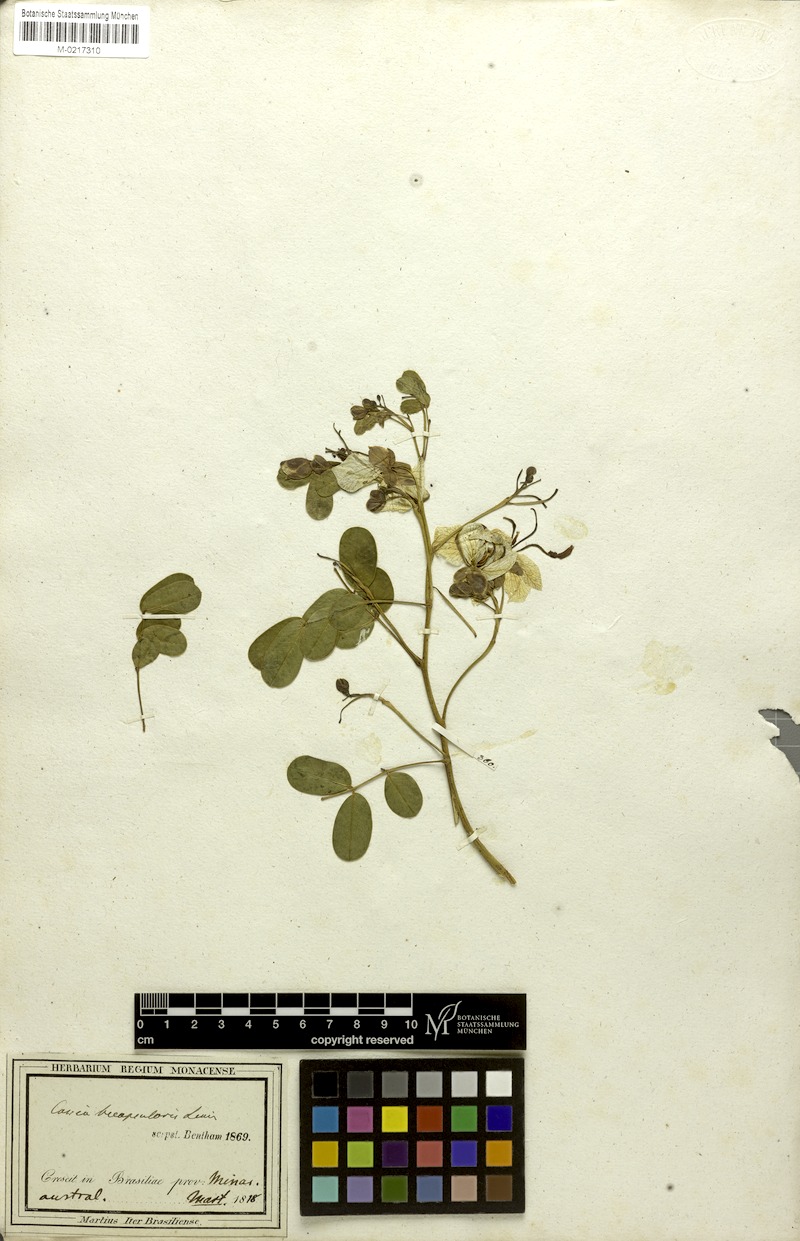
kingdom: Plantae
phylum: Tracheophyta
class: Magnoliopsida
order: Fabales
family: Fabaceae
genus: Senna
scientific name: Senna bicapsularis
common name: Christmasbush
